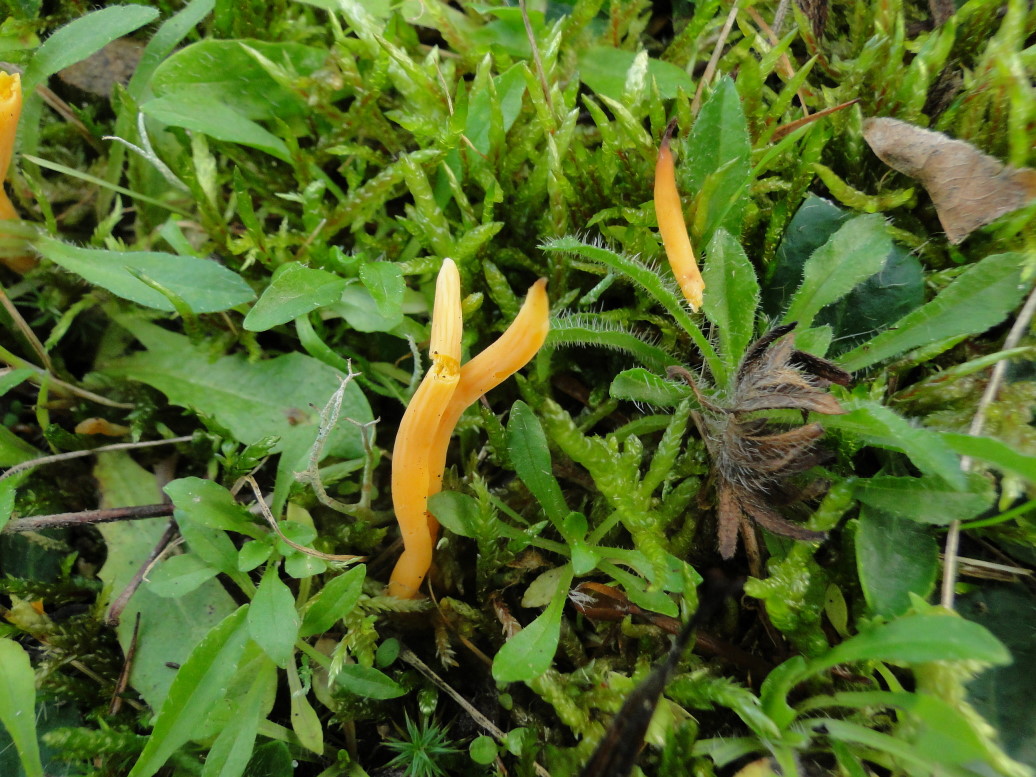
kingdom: Fungi
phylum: Basidiomycota
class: Agaricomycetes
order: Agaricales
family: Clavariaceae
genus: Clavulinopsis
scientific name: Clavulinopsis helvola
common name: orangegul køllesvamp
